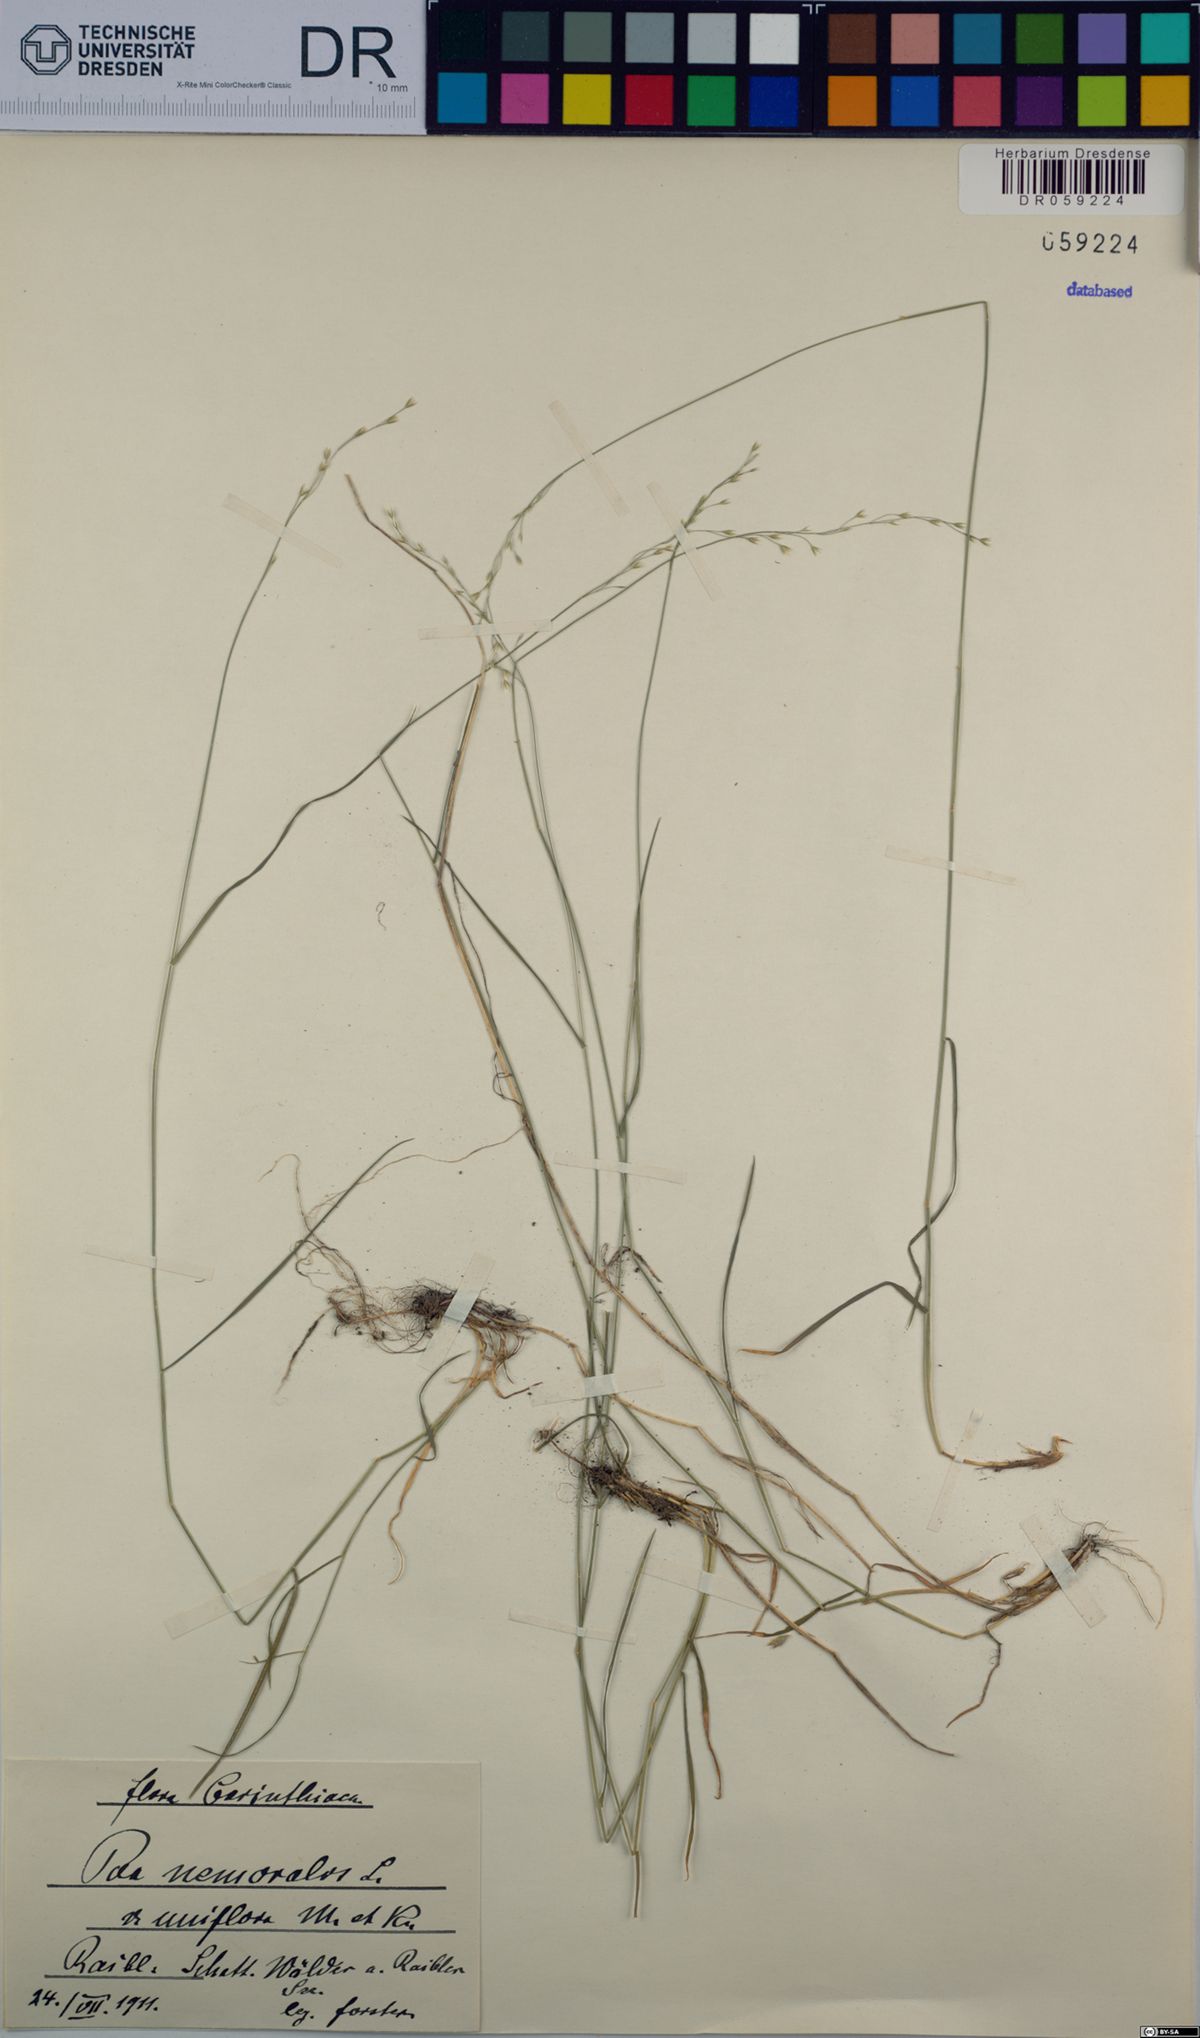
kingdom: Plantae
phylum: Tracheophyta
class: Liliopsida
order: Poales
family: Poaceae
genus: Poa
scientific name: Poa nemoralis
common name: Wood bluegrass
